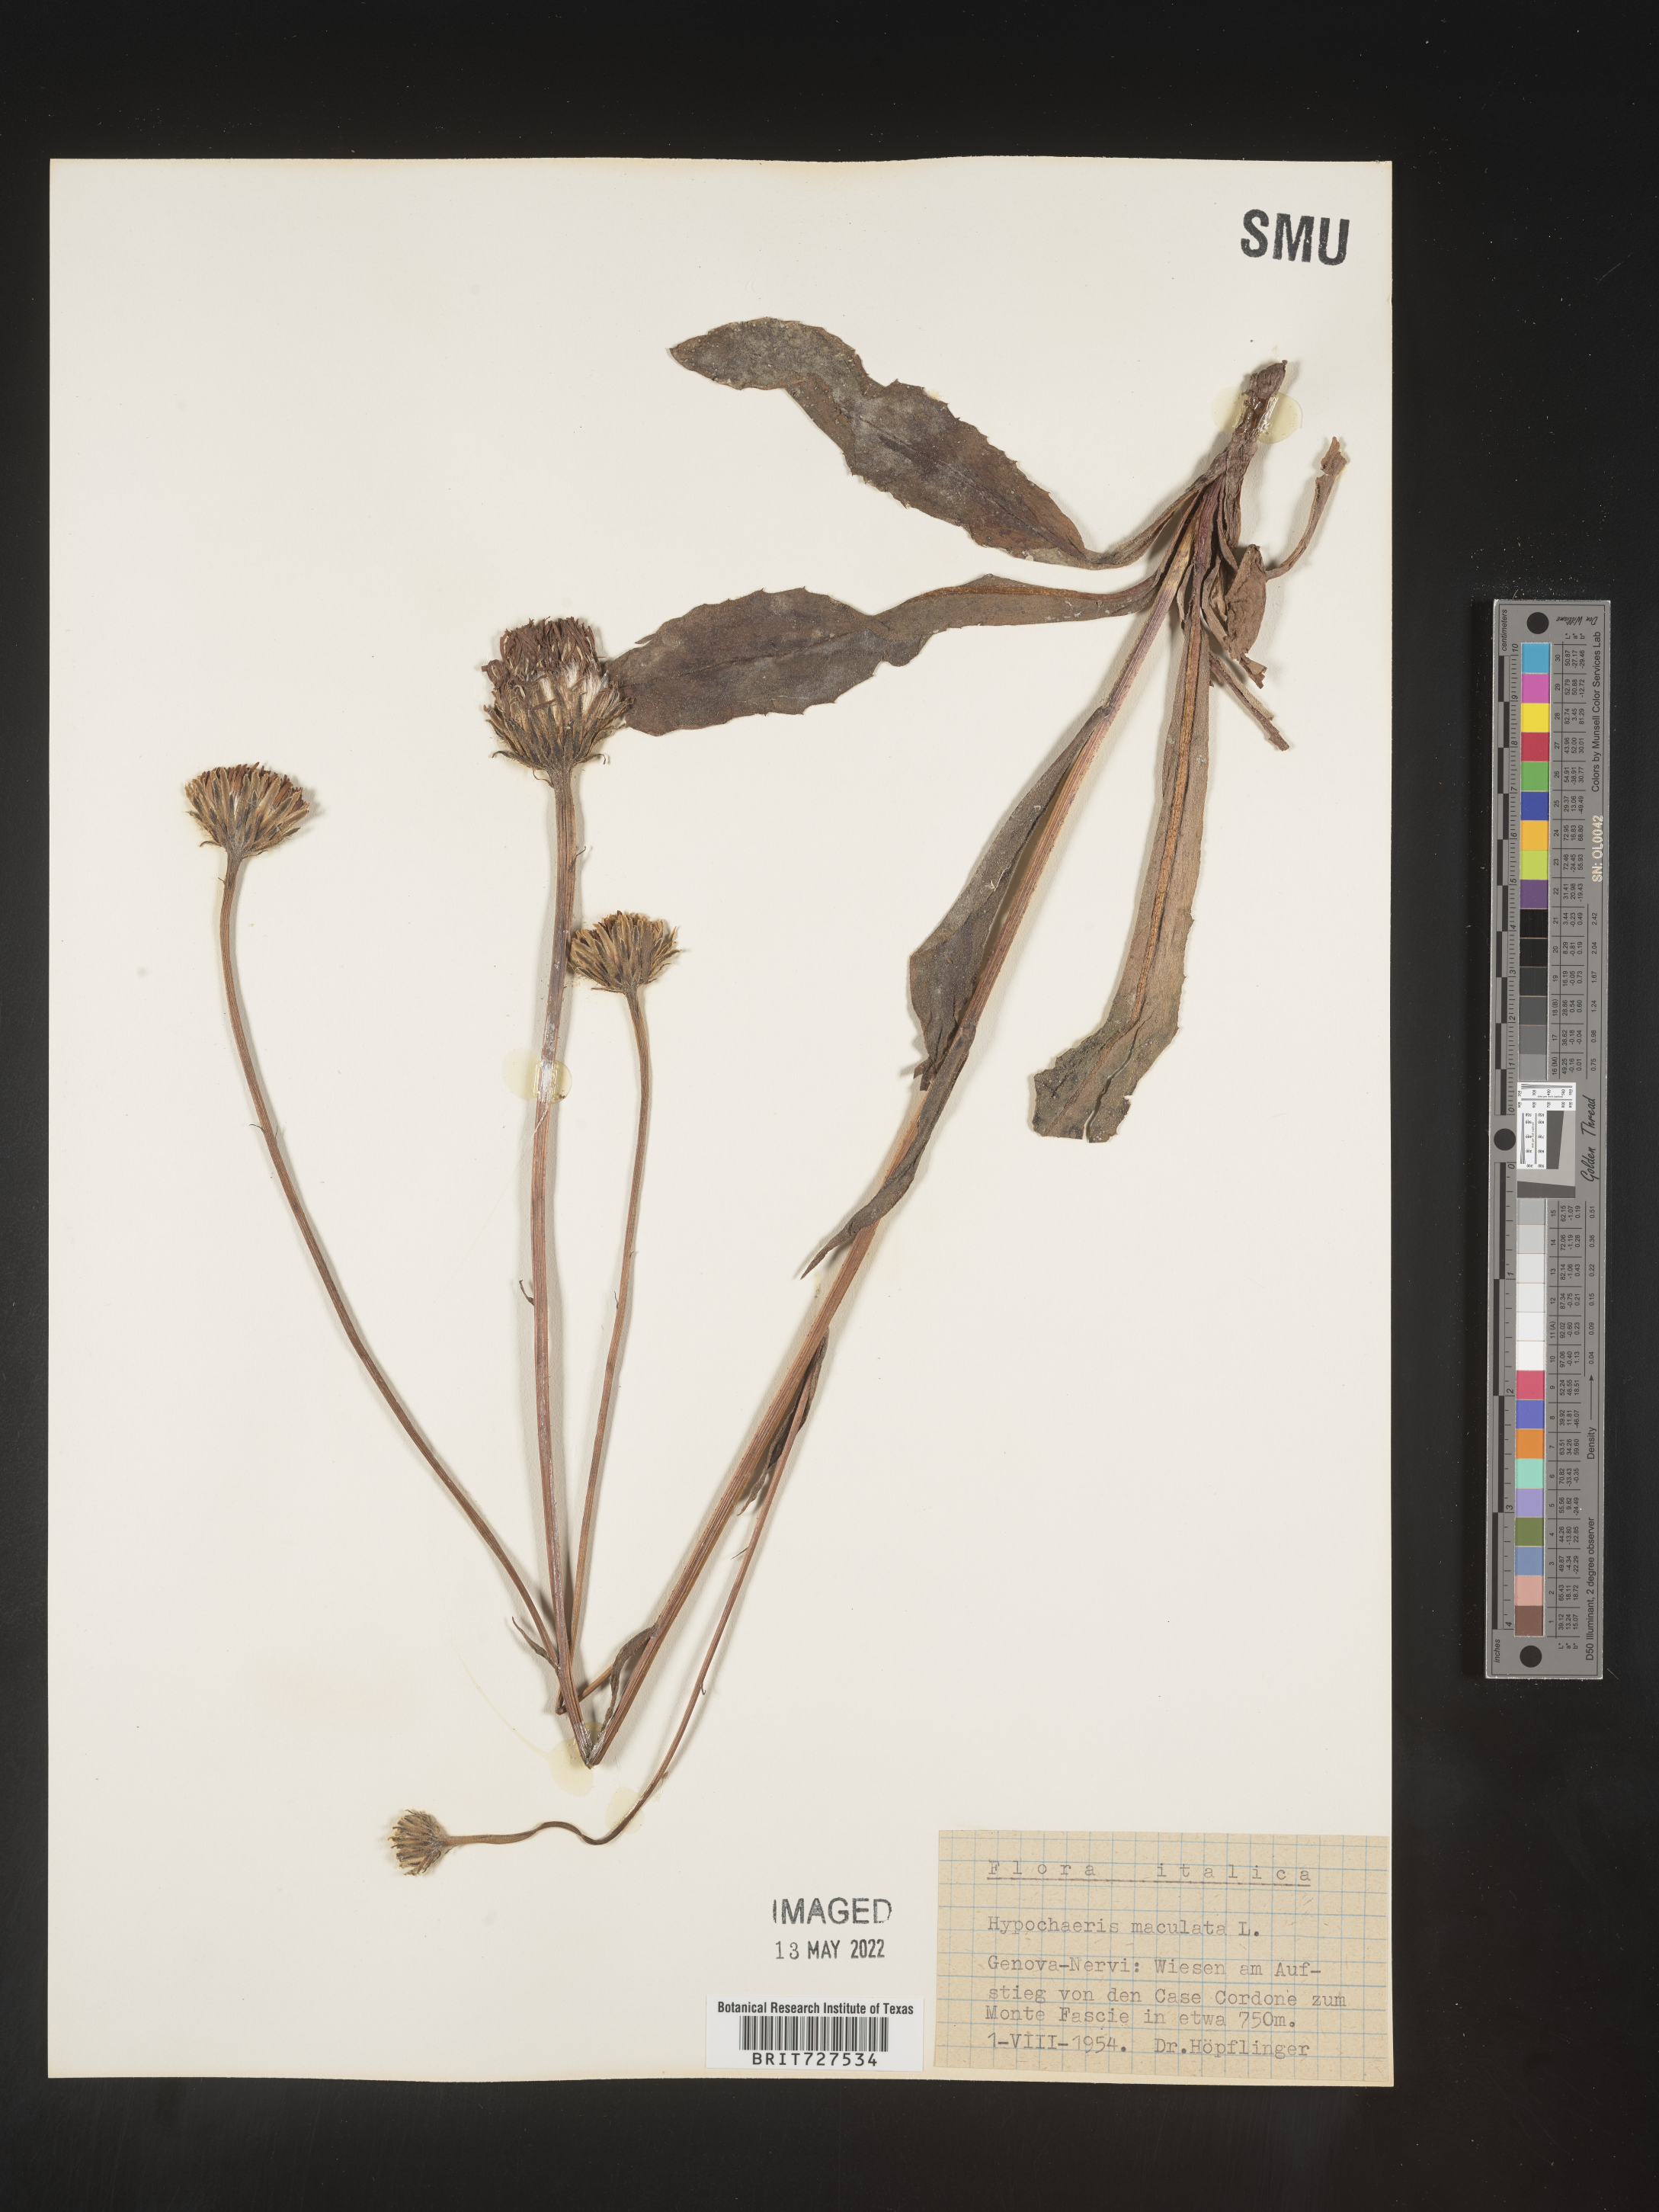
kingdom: Plantae
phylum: Tracheophyta
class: Magnoliopsida
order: Asterales
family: Asteraceae
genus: Hypochaeris
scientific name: Hypochaeris
